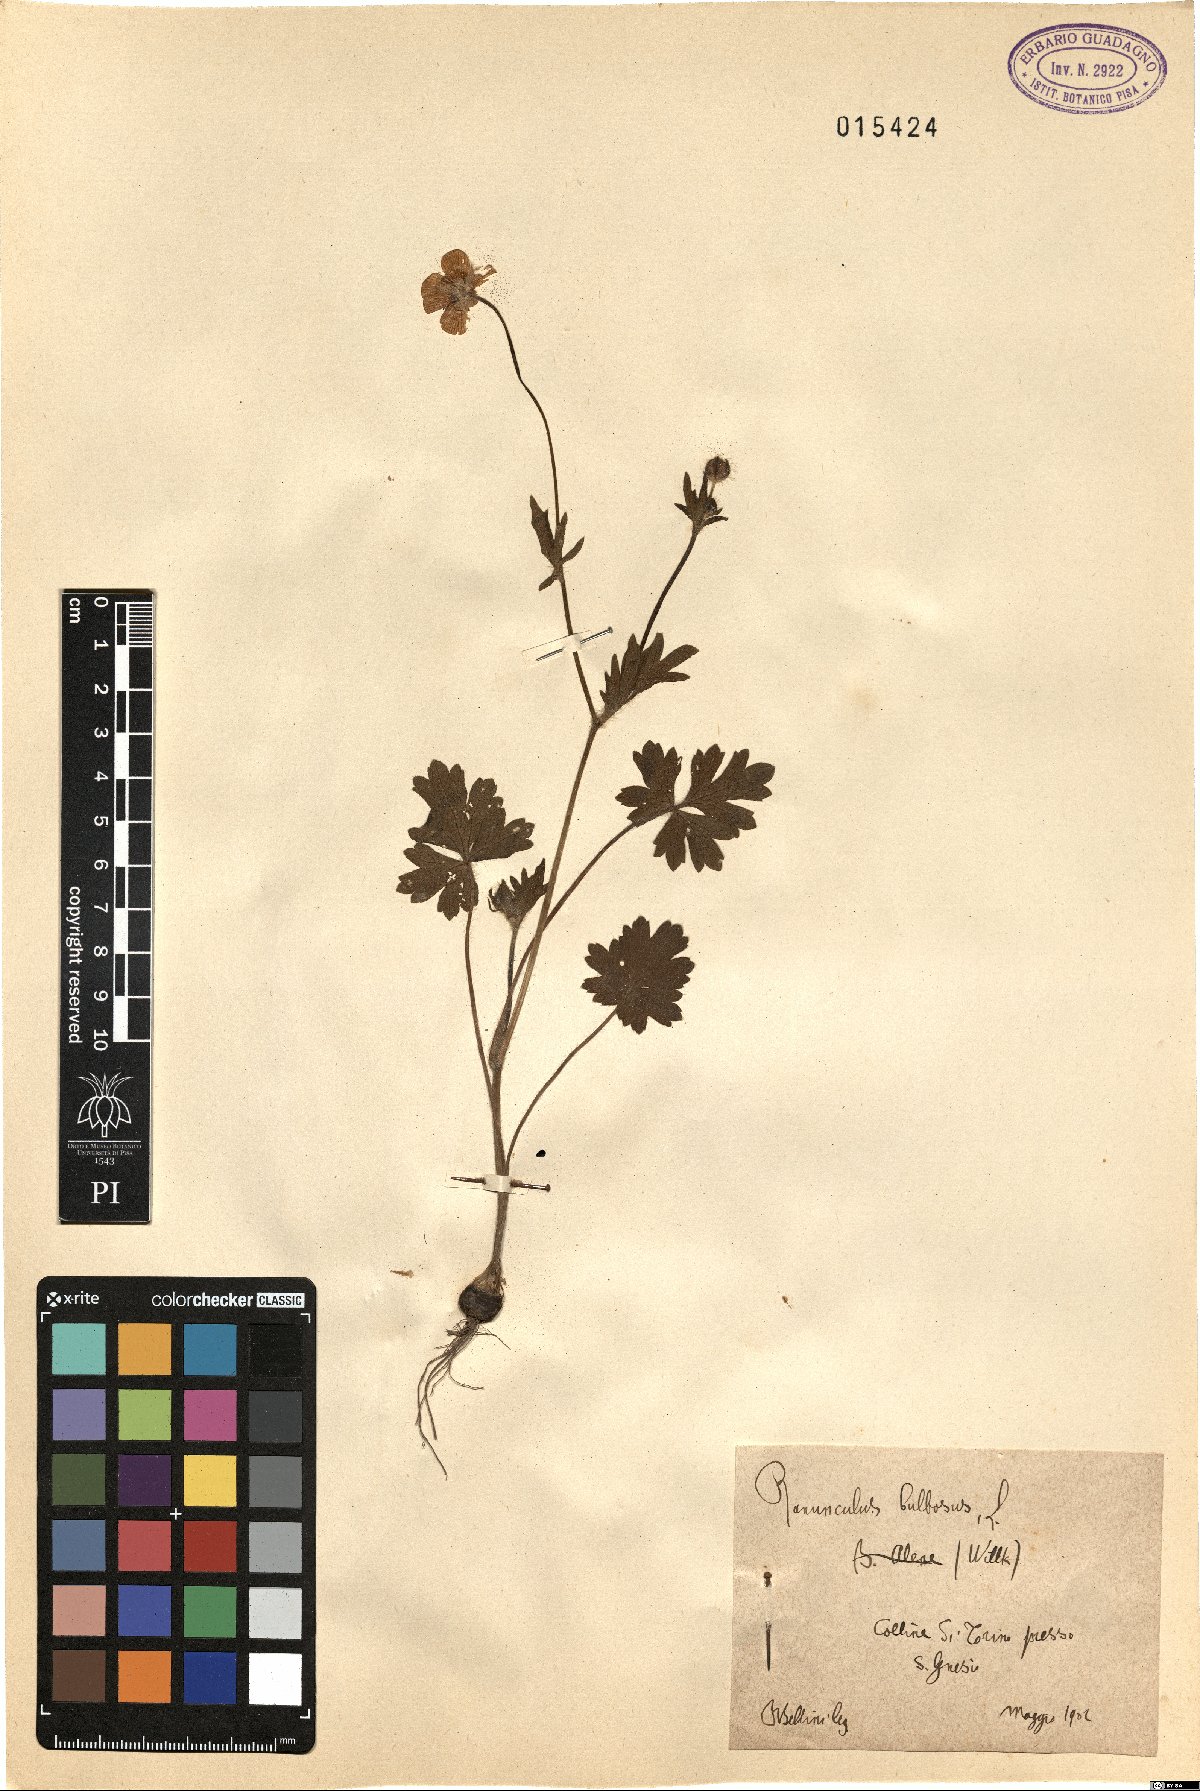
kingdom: Plantae
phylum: Tracheophyta
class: Magnoliopsida
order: Ranunculales
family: Ranunculaceae
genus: Ranunculus
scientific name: Ranunculus bulbosus
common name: Bulbous buttercup
